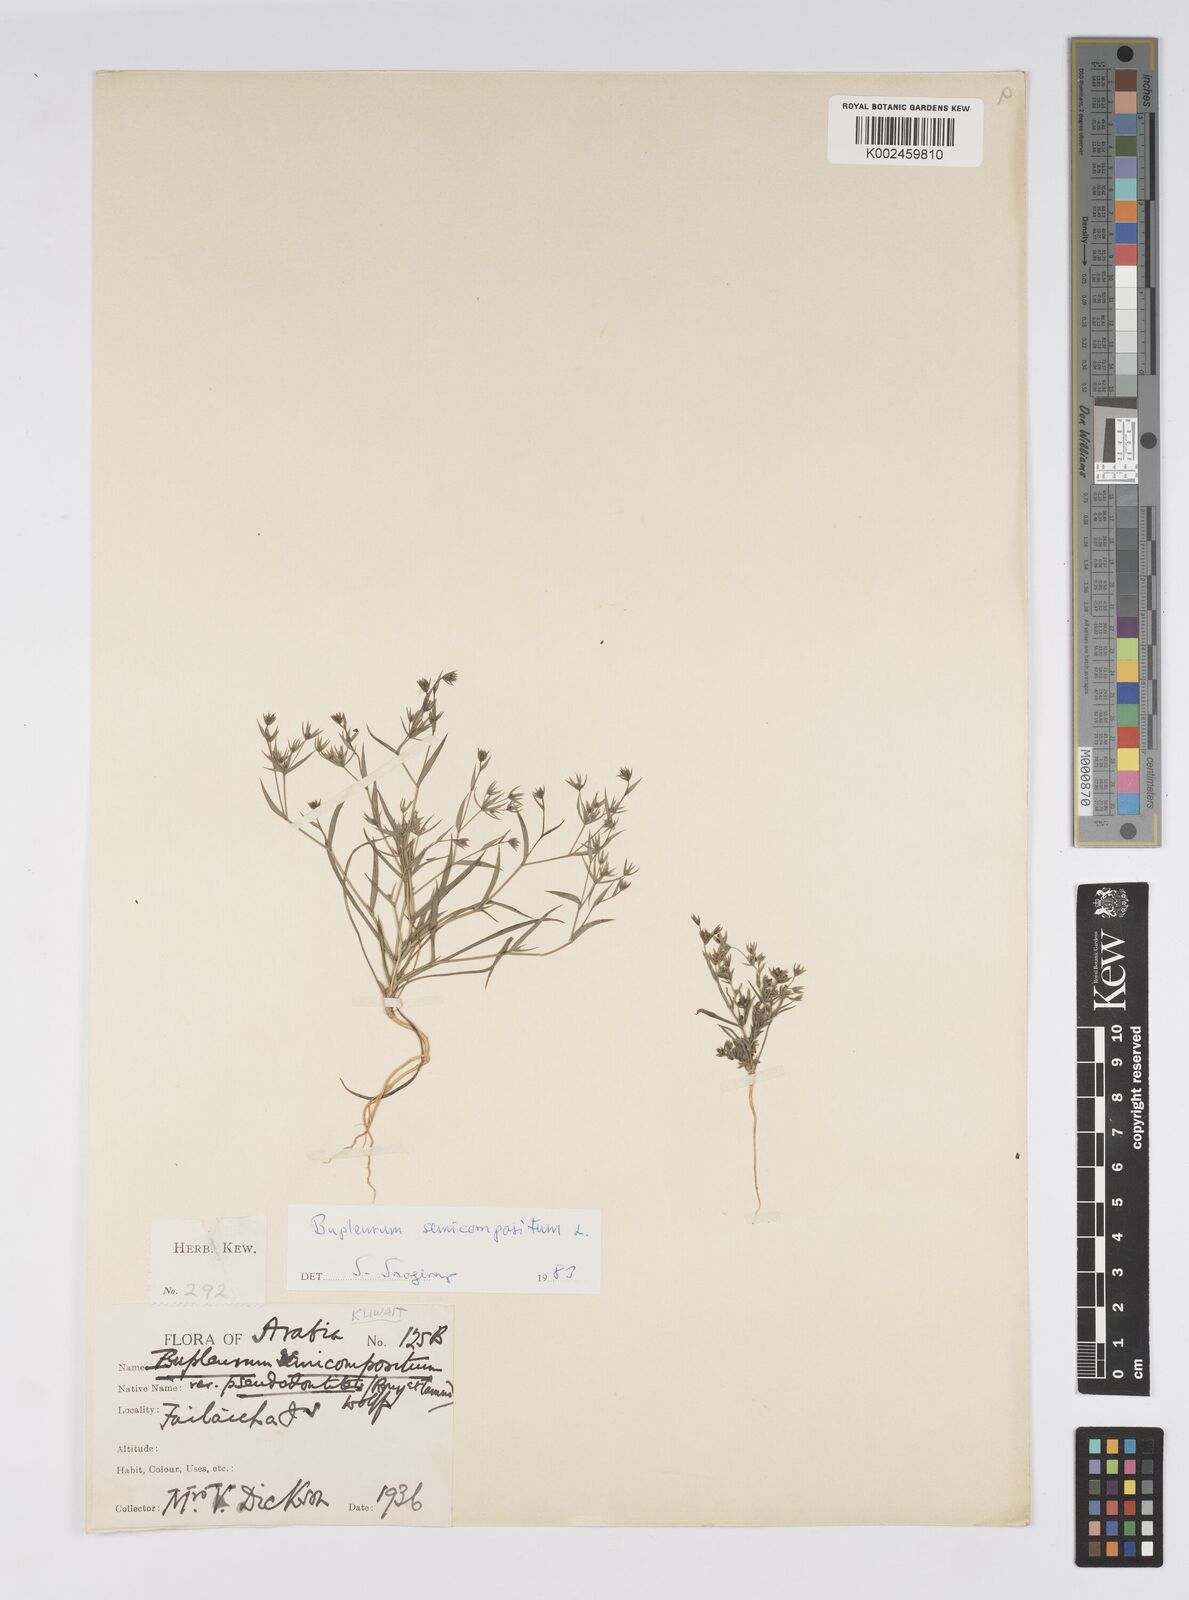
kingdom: Plantae
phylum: Tracheophyta
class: Magnoliopsida
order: Apiales
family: Apiaceae
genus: Bupleurum
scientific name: Bupleurum semicompositum
